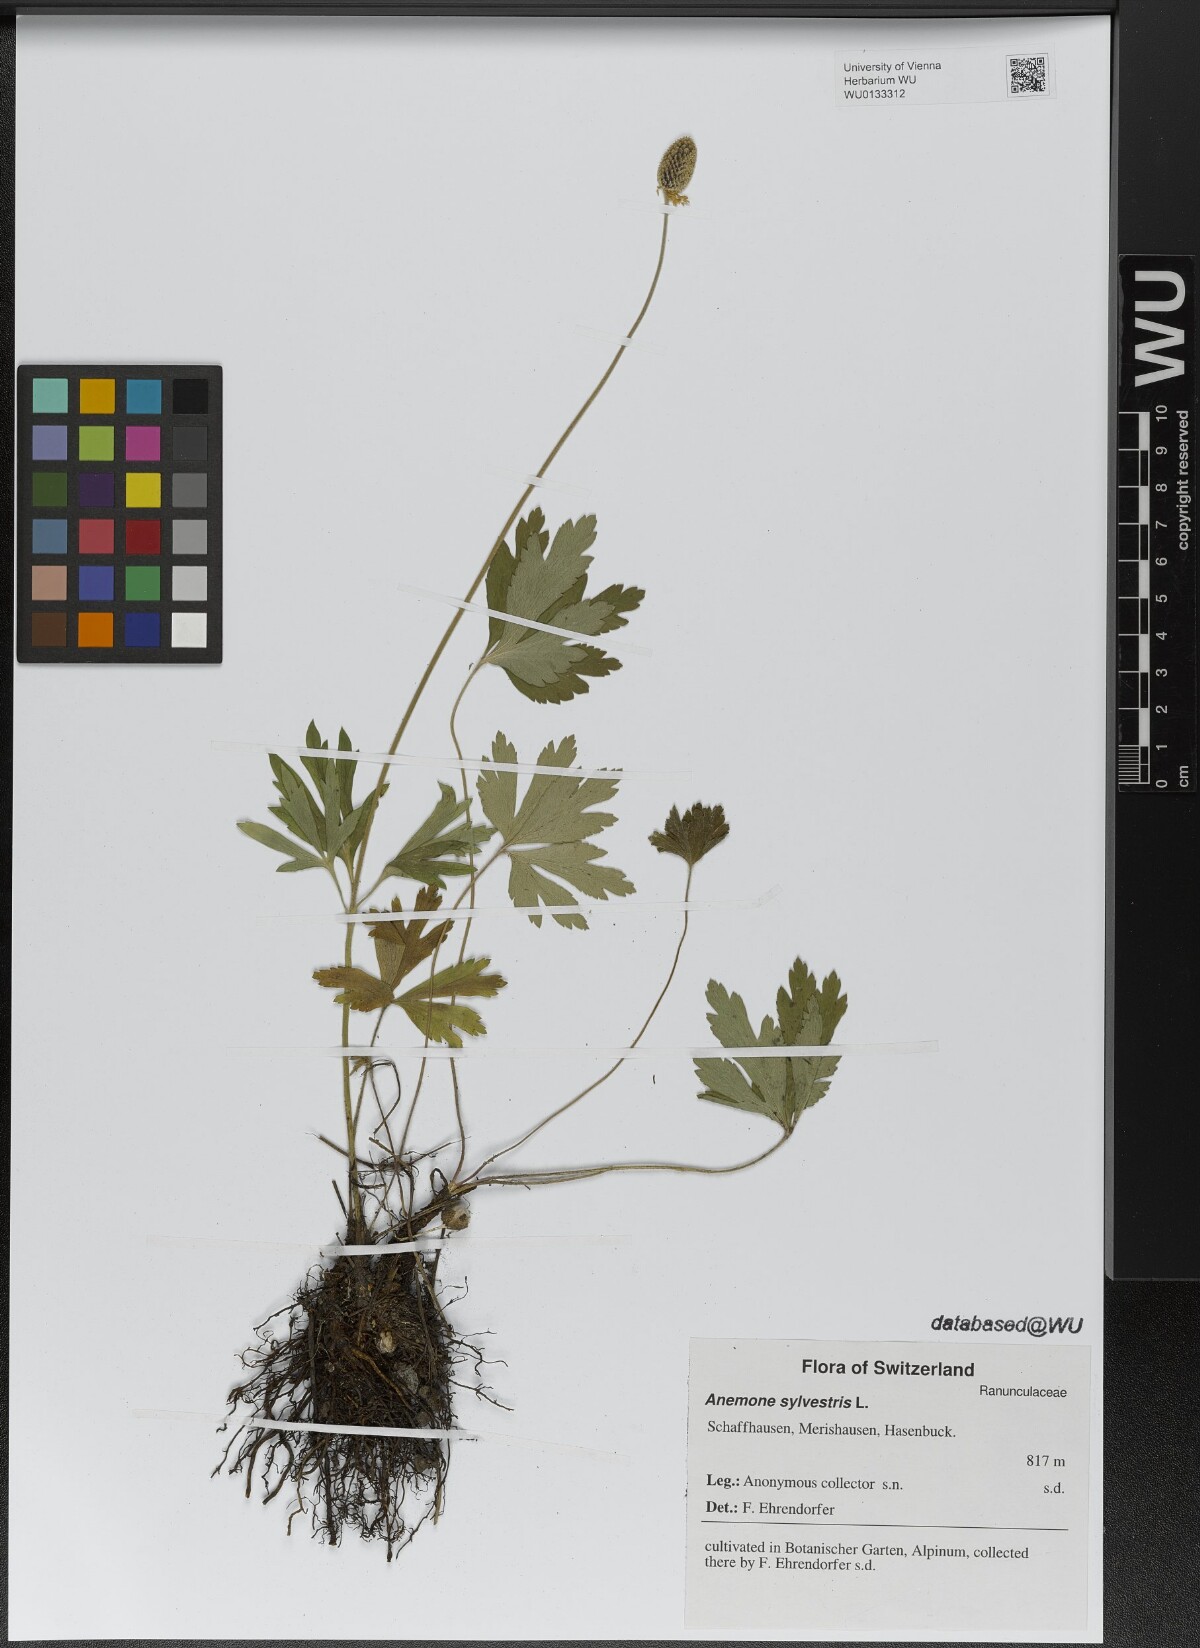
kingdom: Plantae
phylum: Tracheophyta
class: Magnoliopsida
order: Ranunculales
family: Ranunculaceae
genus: Anemone
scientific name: Anemone sylvestris
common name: Snowdrop anemone
